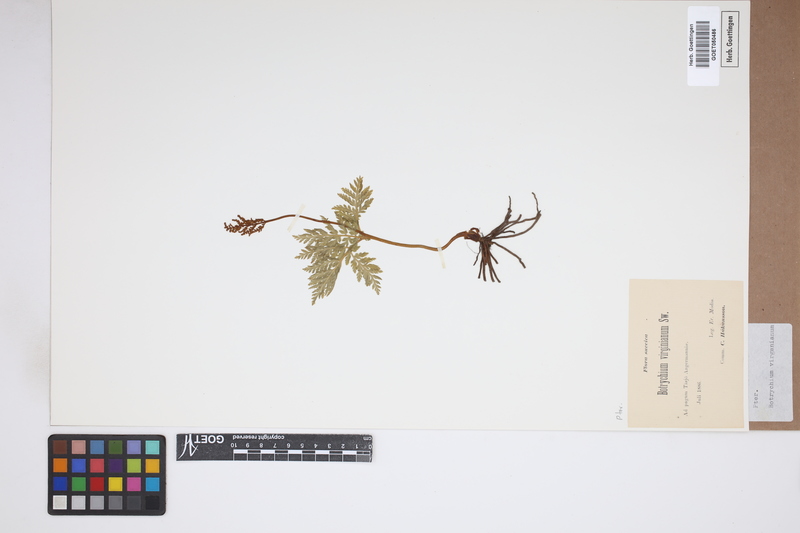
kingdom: Plantae
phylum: Tracheophyta
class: Polypodiopsida
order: Ophioglossales
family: Ophioglossaceae
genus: Botrychium
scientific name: Botrychium virginianum
